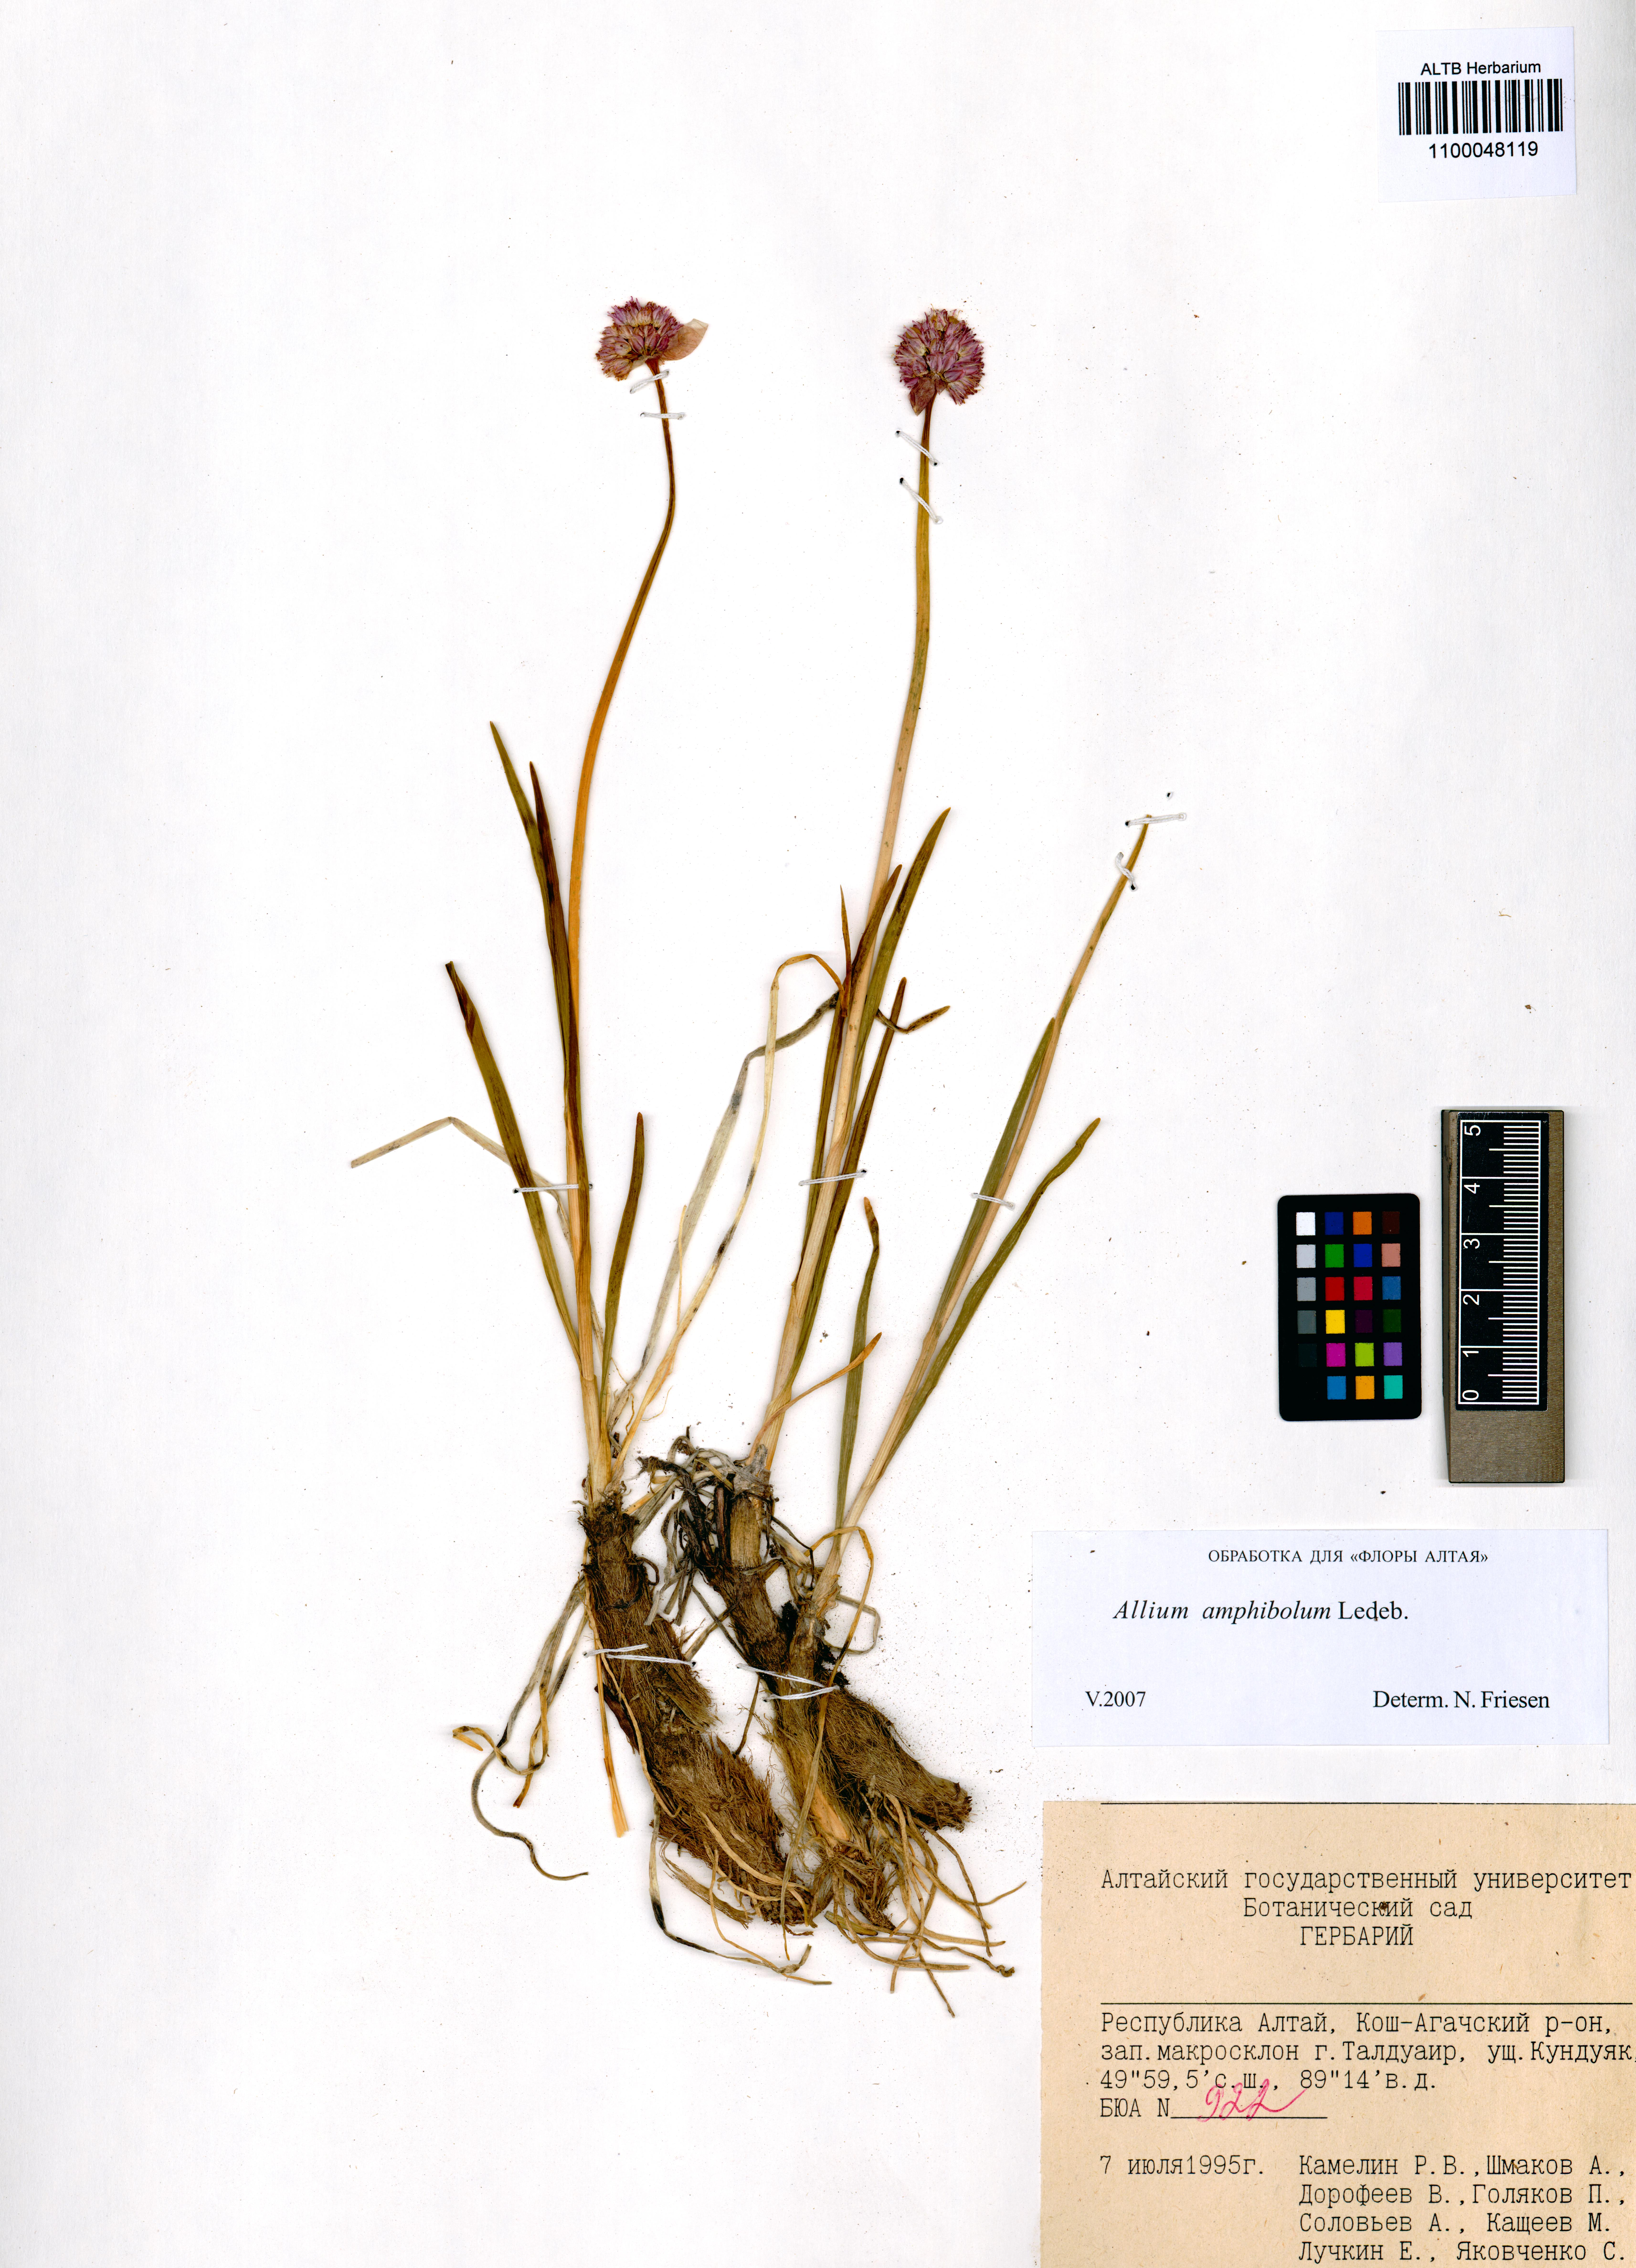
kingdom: Plantae
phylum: Tracheophyta
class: Liliopsida
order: Asparagales
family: Amaryllidaceae
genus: Allium
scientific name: Allium amphibolum
